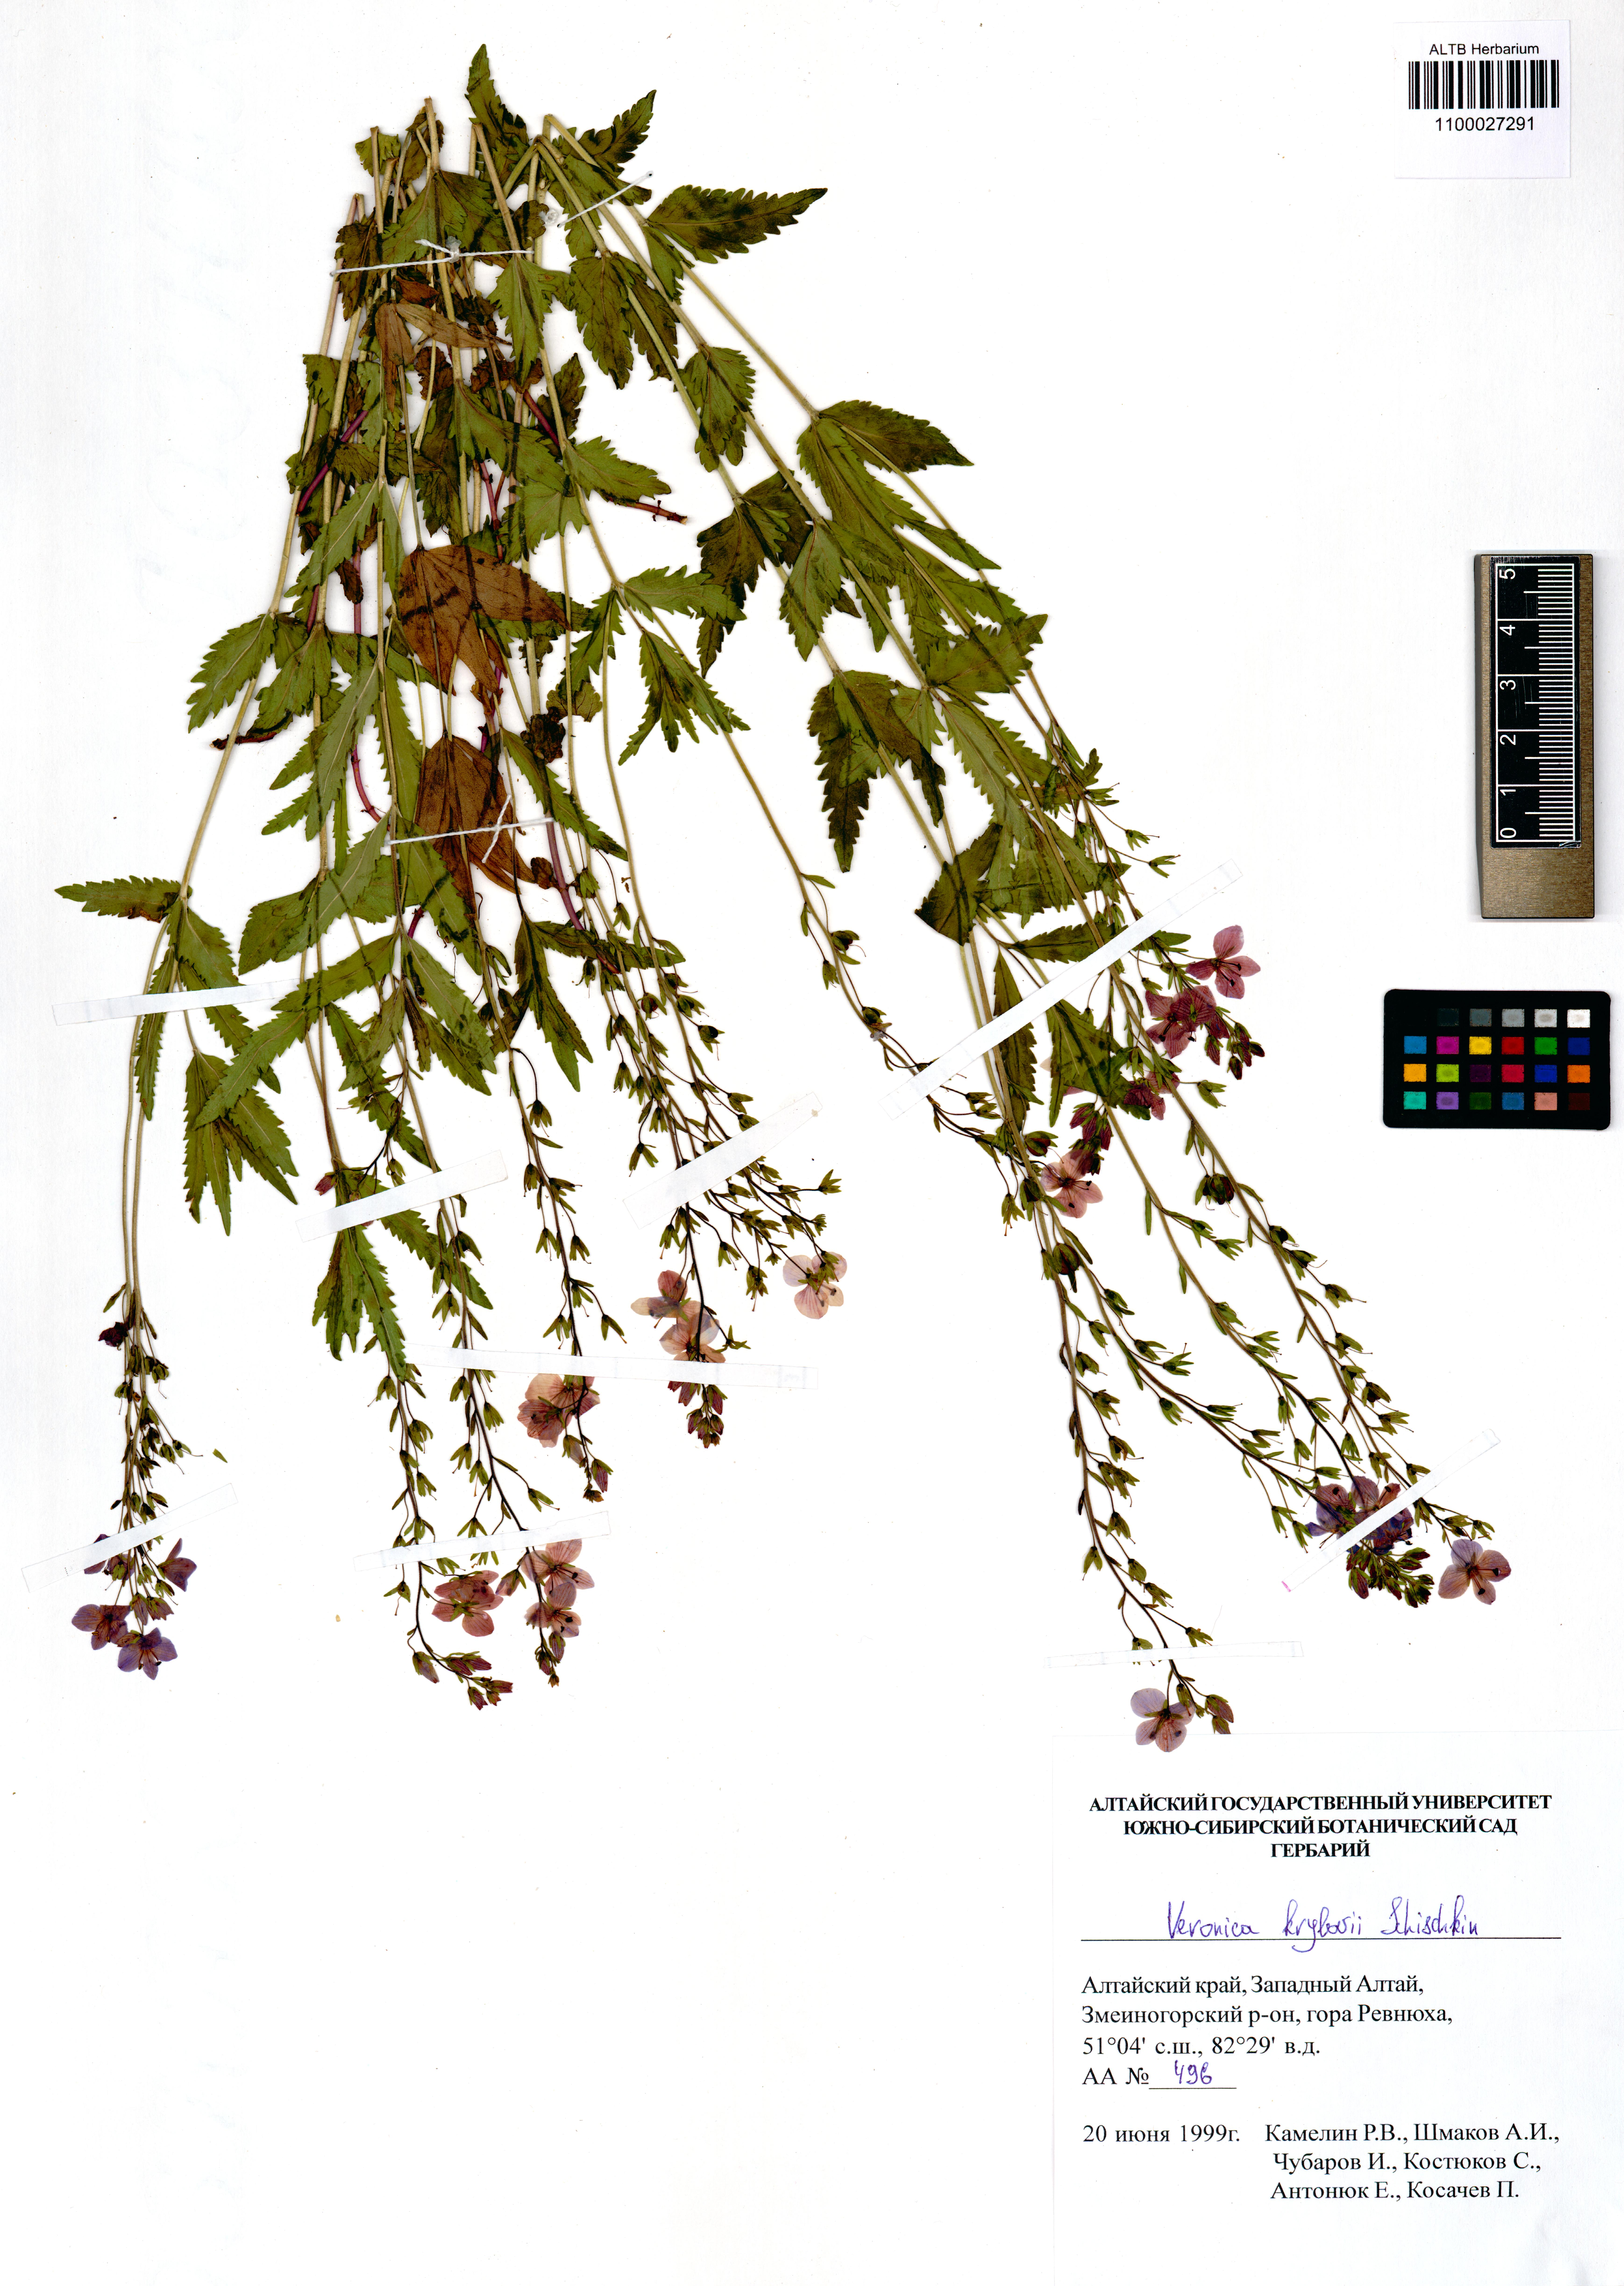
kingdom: Plantae
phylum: Tracheophyta
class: Magnoliopsida
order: Lamiales
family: Plantaginaceae
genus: Veronica
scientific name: Veronica krylovii
